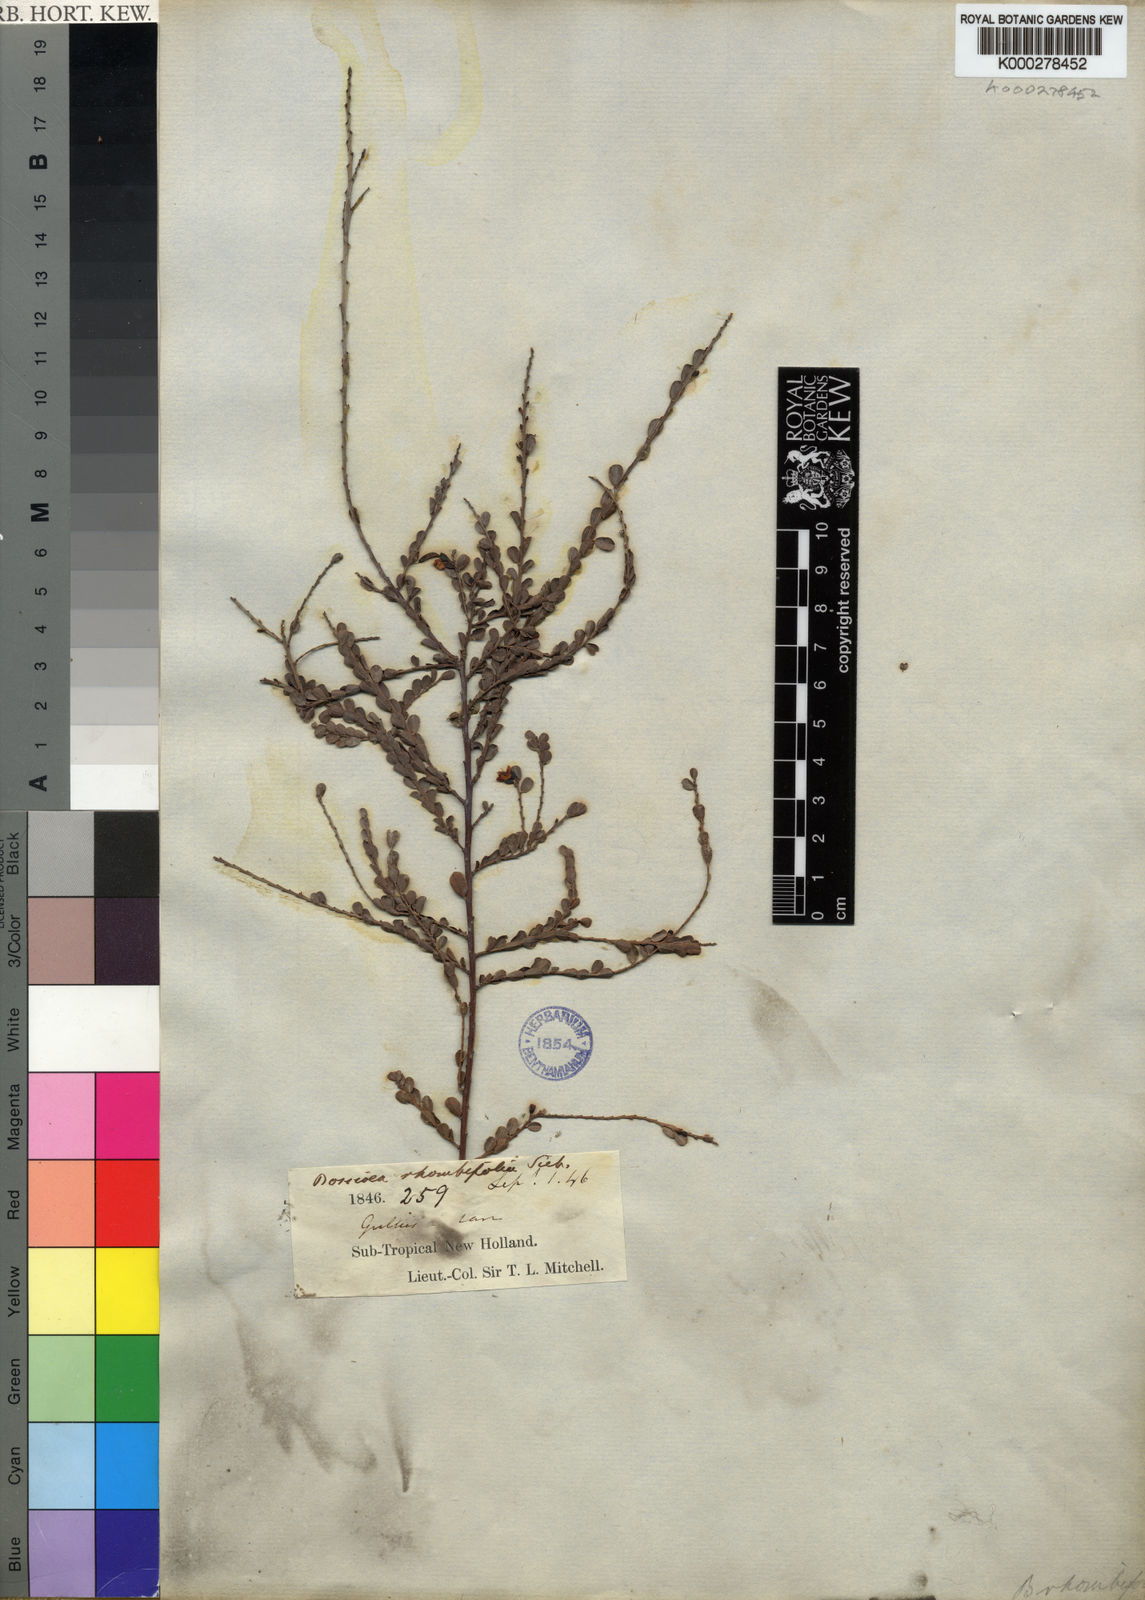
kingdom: Plantae
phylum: Tracheophyta
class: Magnoliopsida
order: Fabales
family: Fabaceae
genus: Bossiaea
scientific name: Bossiaea rhombifolia
